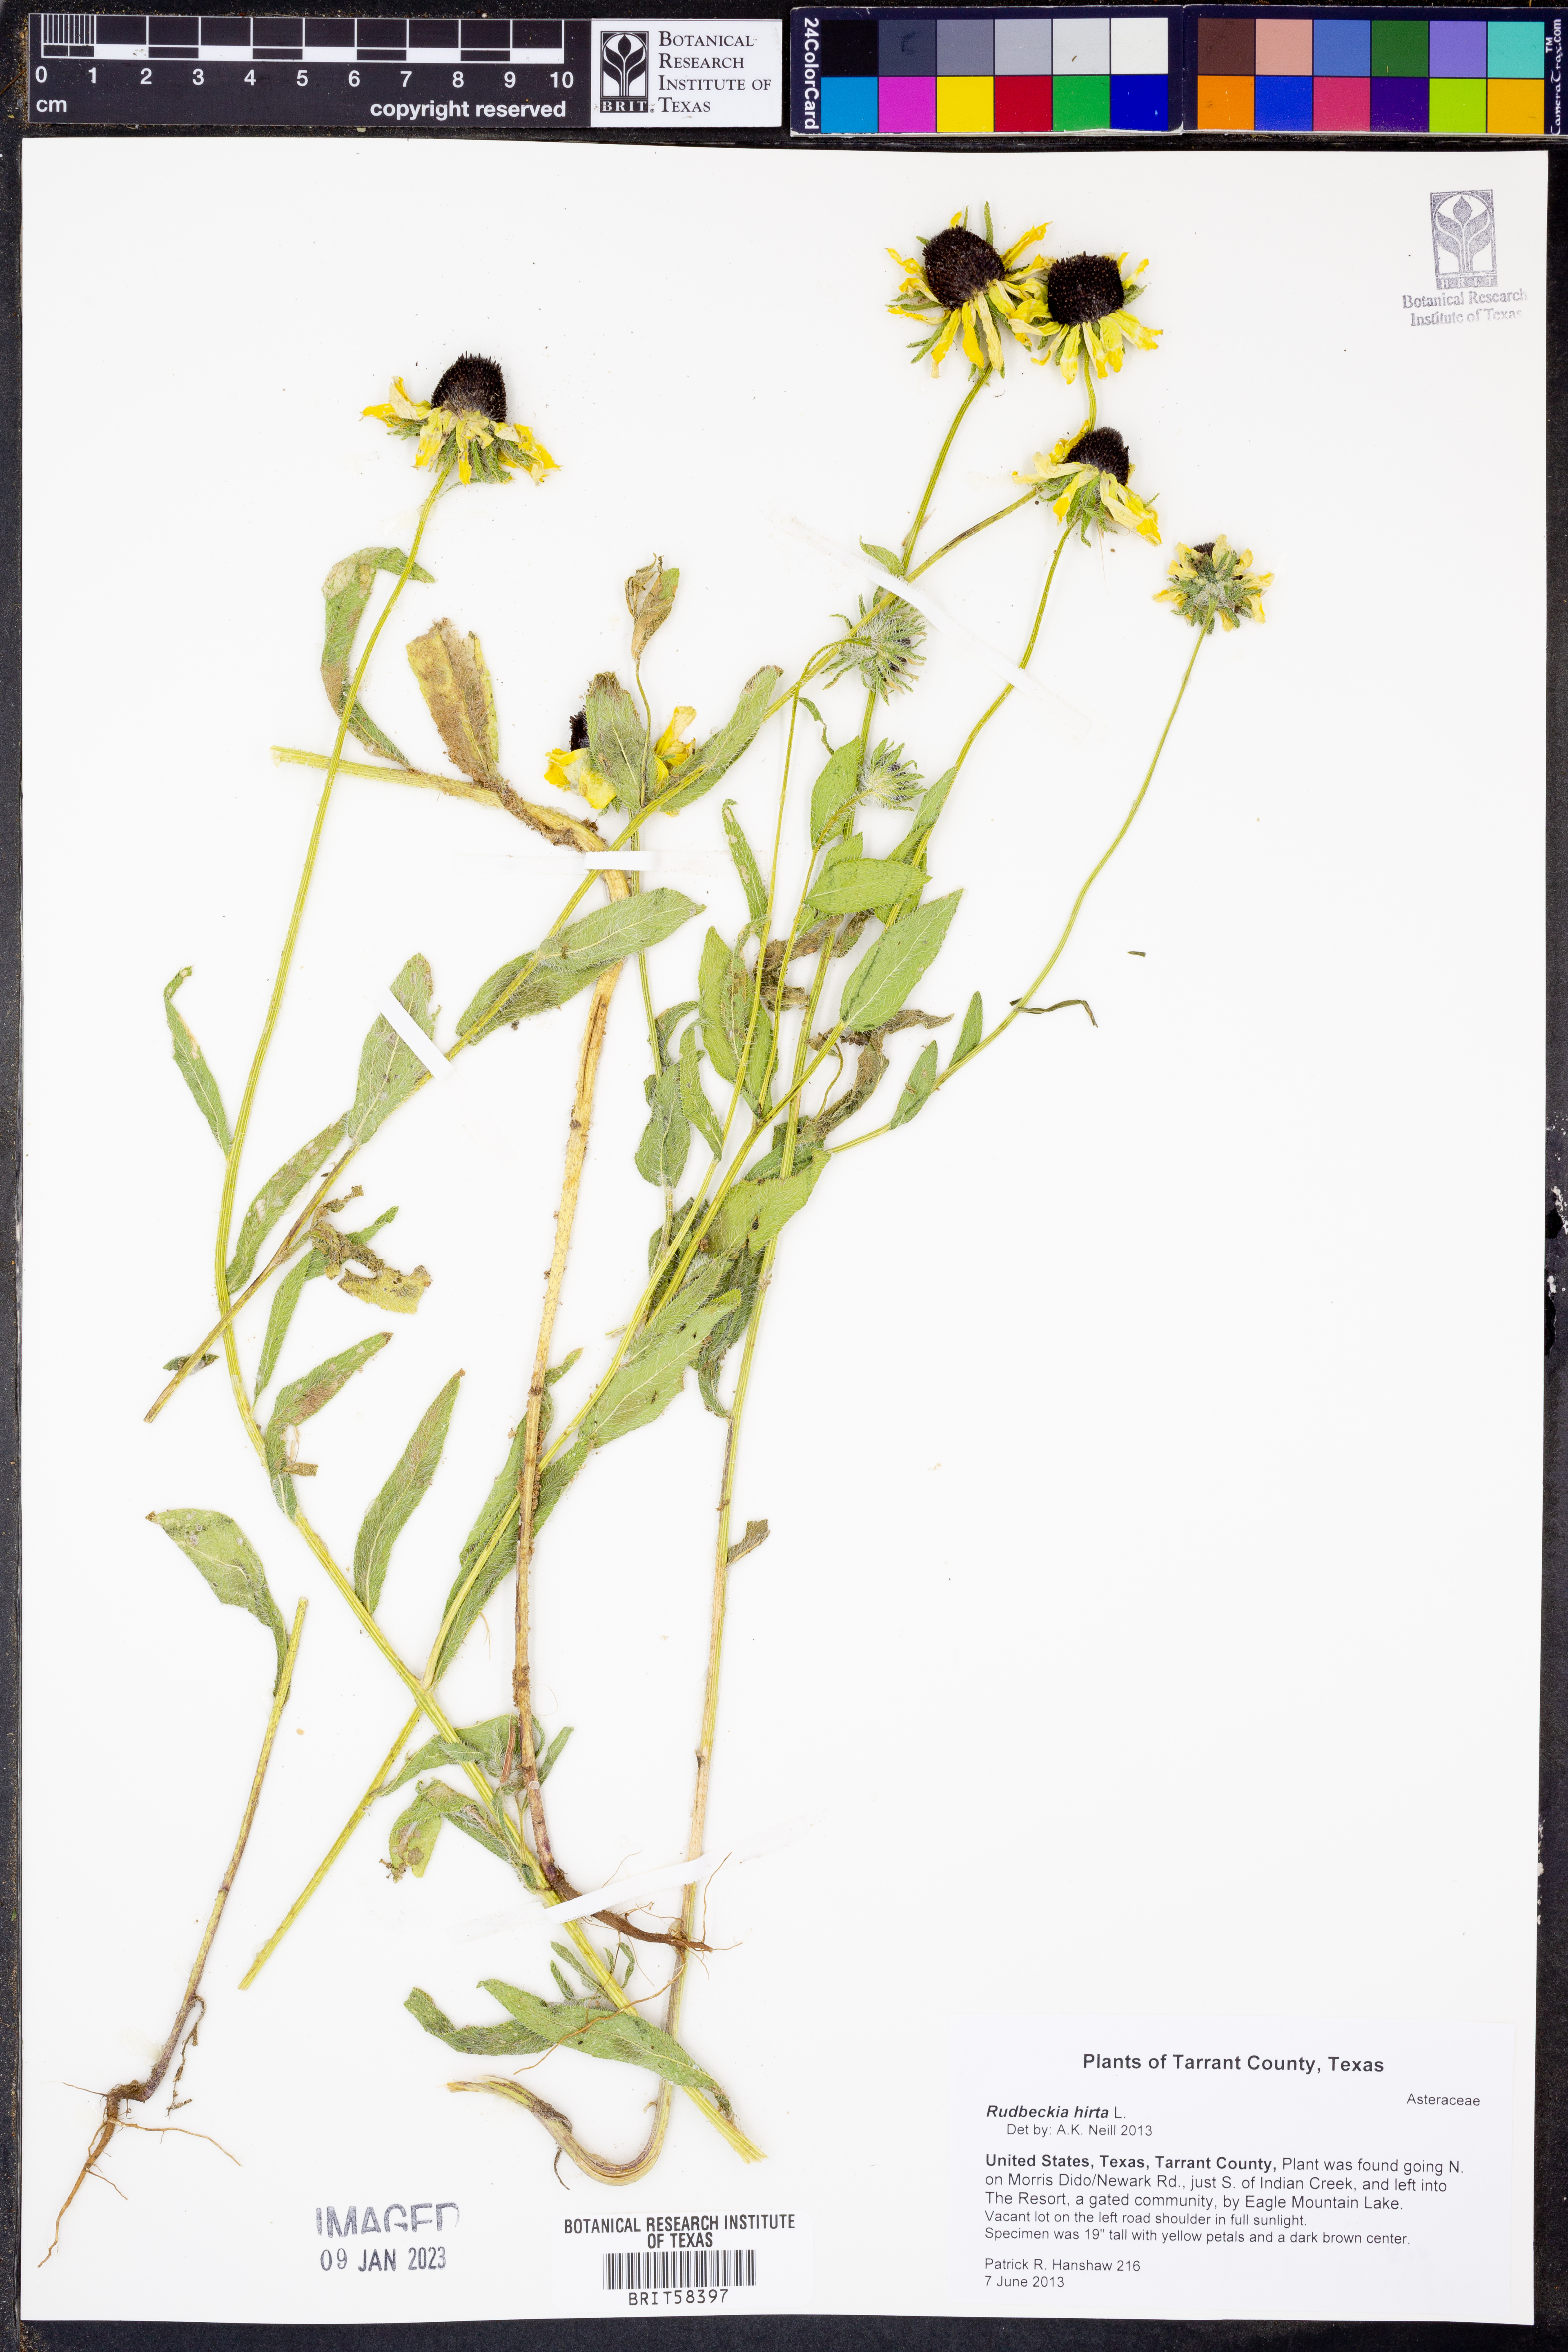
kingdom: Plantae
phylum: Tracheophyta
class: Magnoliopsida
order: Asterales
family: Asteraceae
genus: Rudbeckia
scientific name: Rudbeckia hirta
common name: Black-eyed-susan
